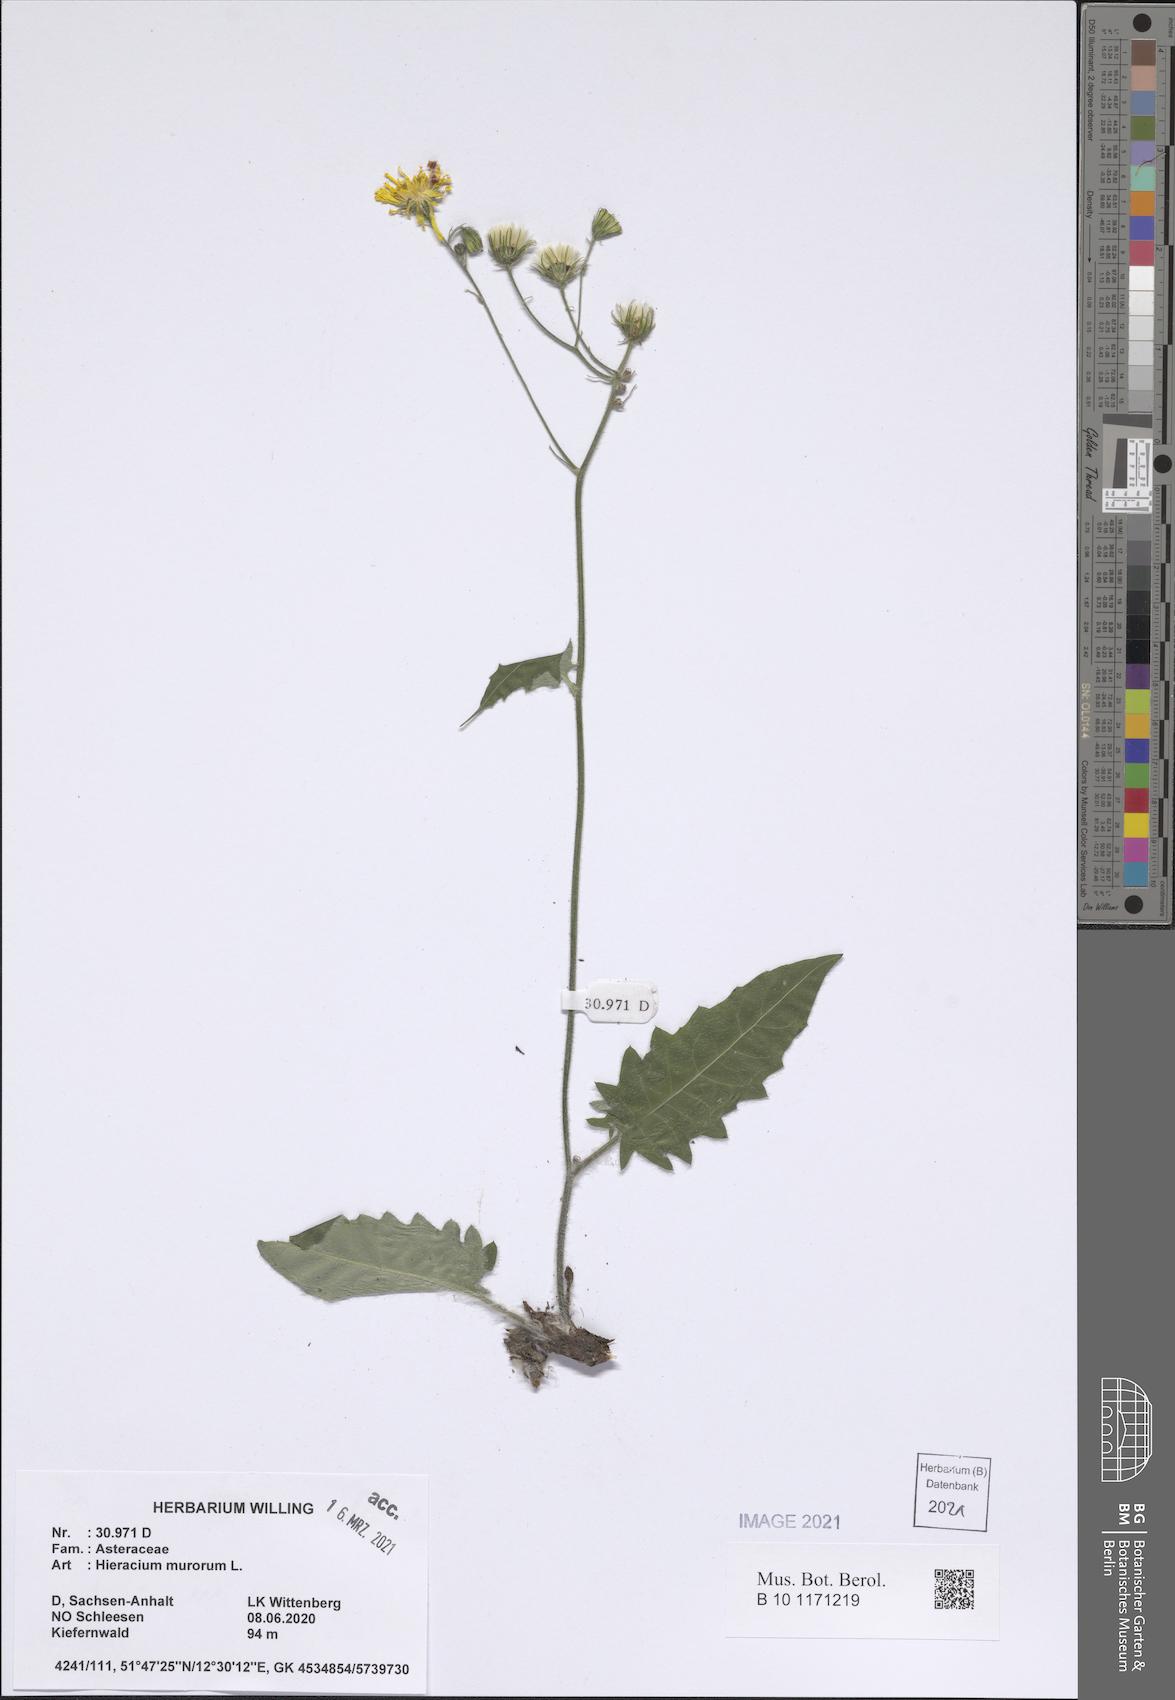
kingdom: Plantae
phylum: Tracheophyta
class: Magnoliopsida
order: Asterales
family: Asteraceae
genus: Hieracium
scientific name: Hieracium murorum
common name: Wall hawkweed
